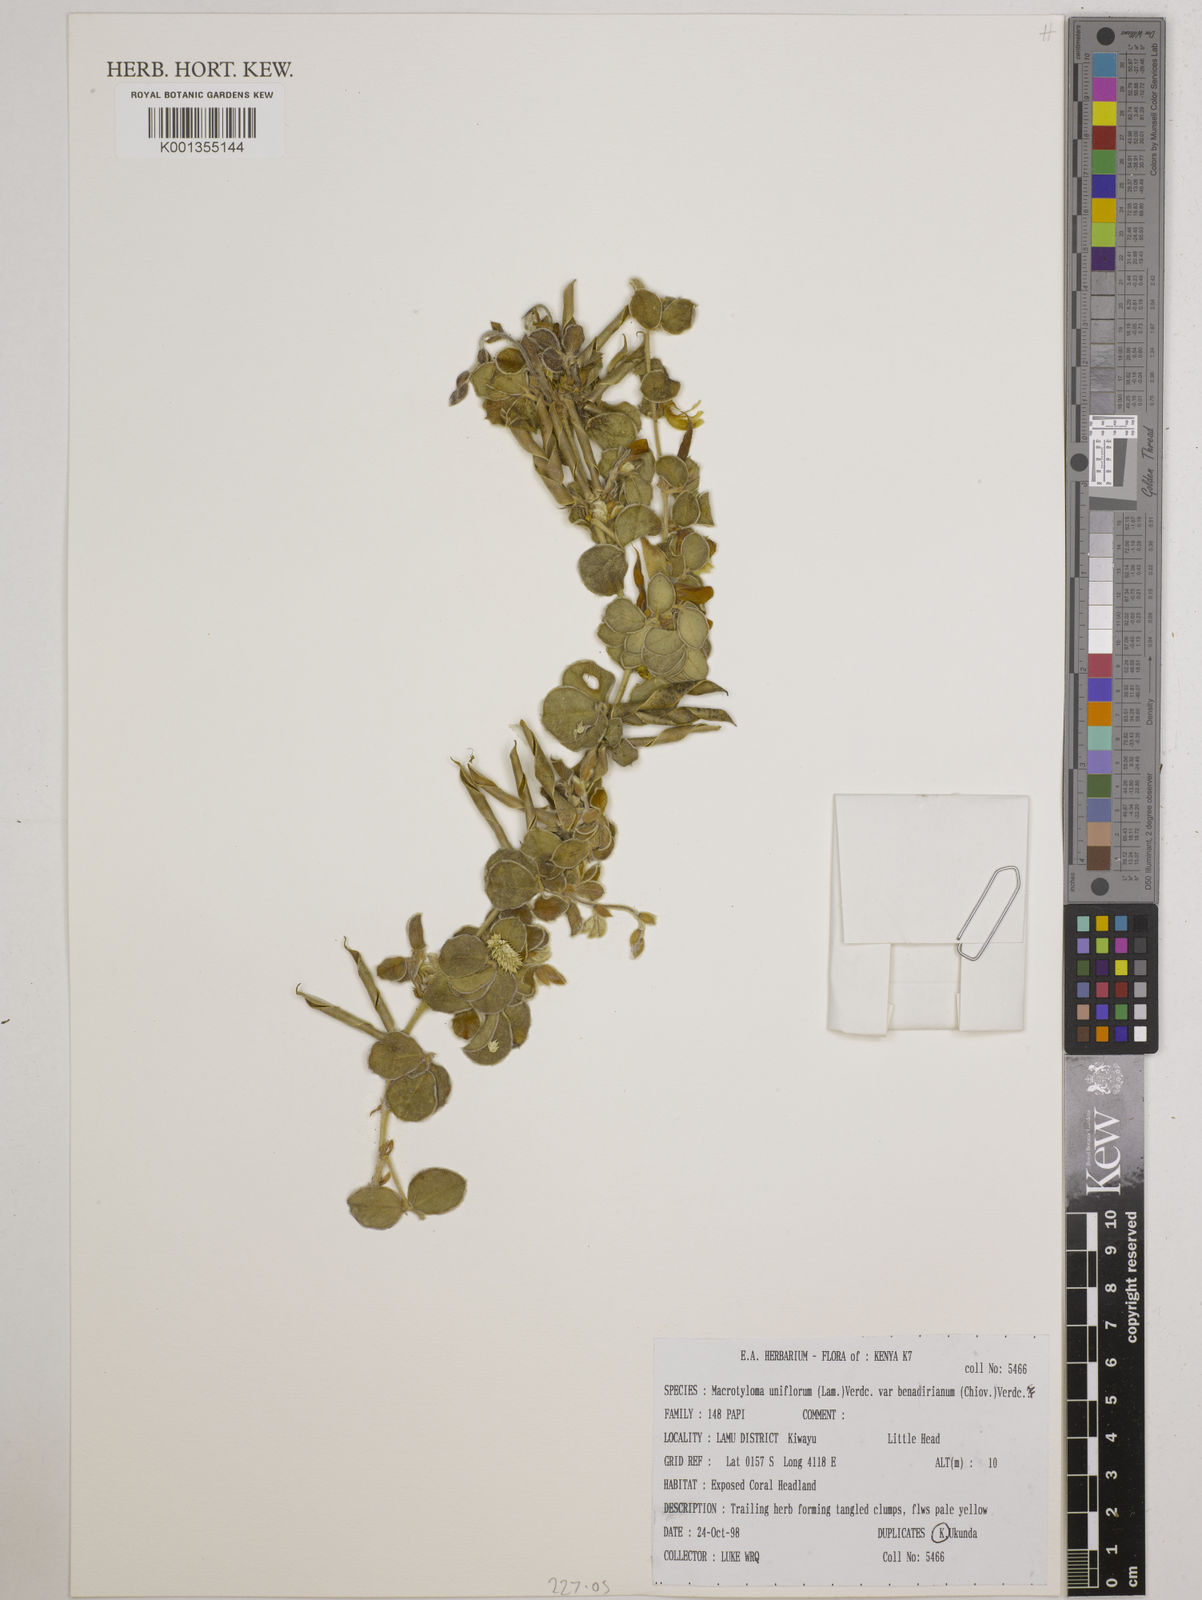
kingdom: Plantae
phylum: Tracheophyta
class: Magnoliopsida
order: Fabales
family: Fabaceae
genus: Macrotyloma
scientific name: Macrotyloma
